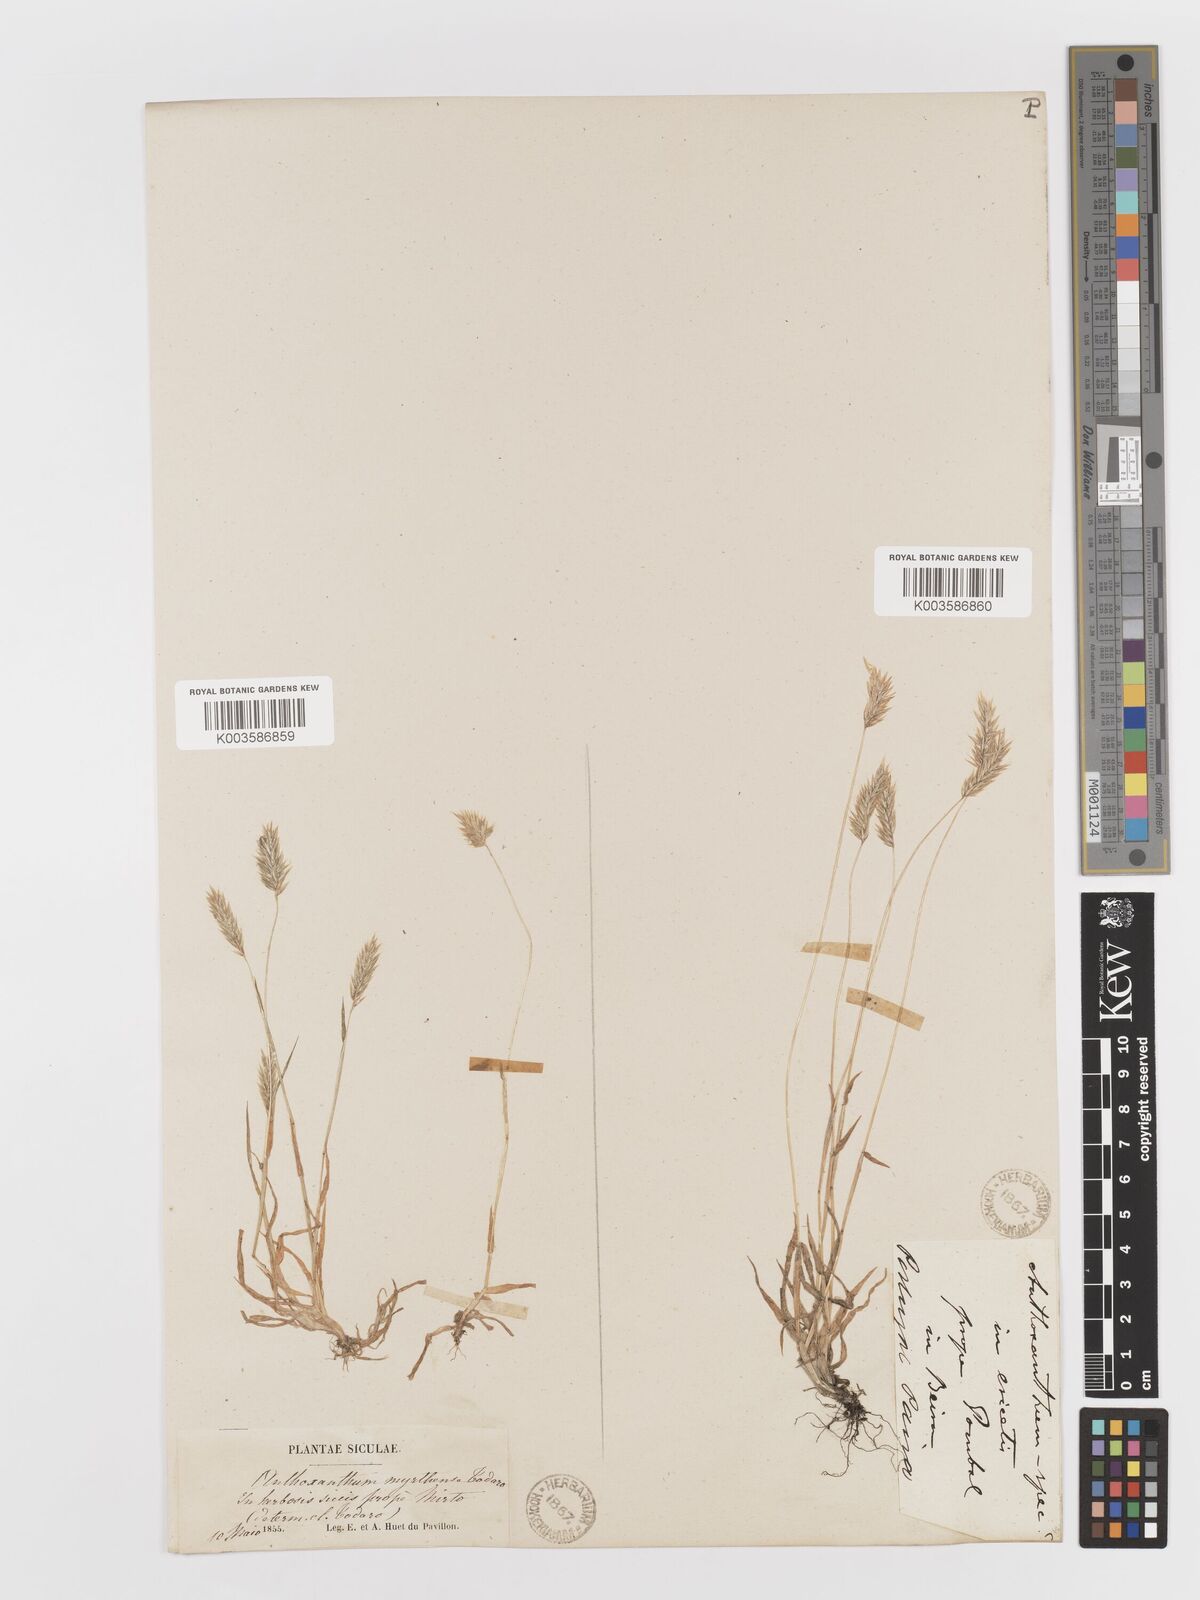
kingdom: Plantae
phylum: Tracheophyta
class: Liliopsida
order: Poales
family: Poaceae
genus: Anthoxanthum
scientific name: Anthoxanthum
